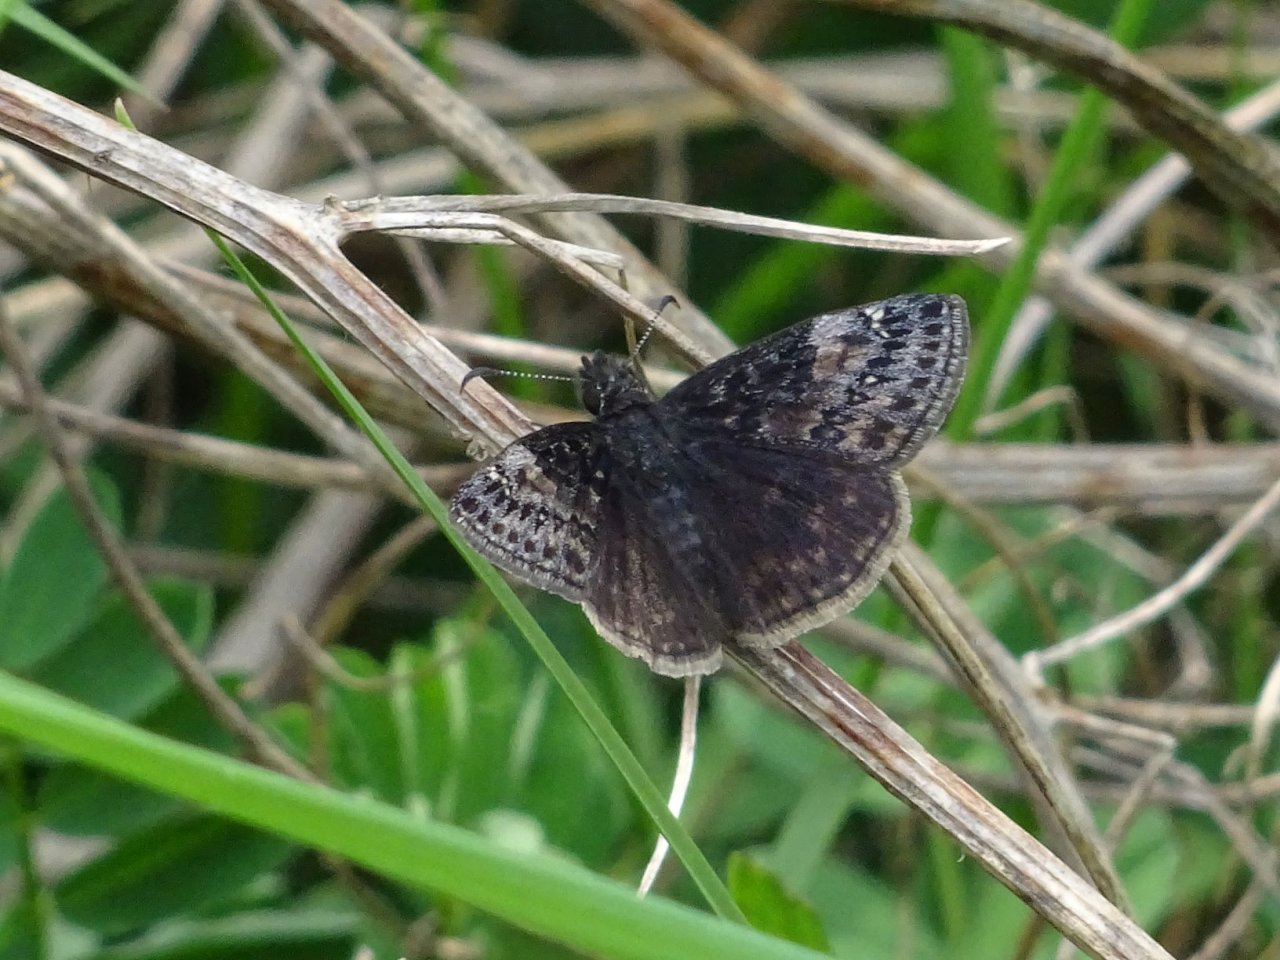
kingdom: Animalia
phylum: Arthropoda
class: Insecta
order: Lepidoptera
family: Hesperiidae
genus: Gesta
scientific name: Gesta
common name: Wild Indigo Duskywing
